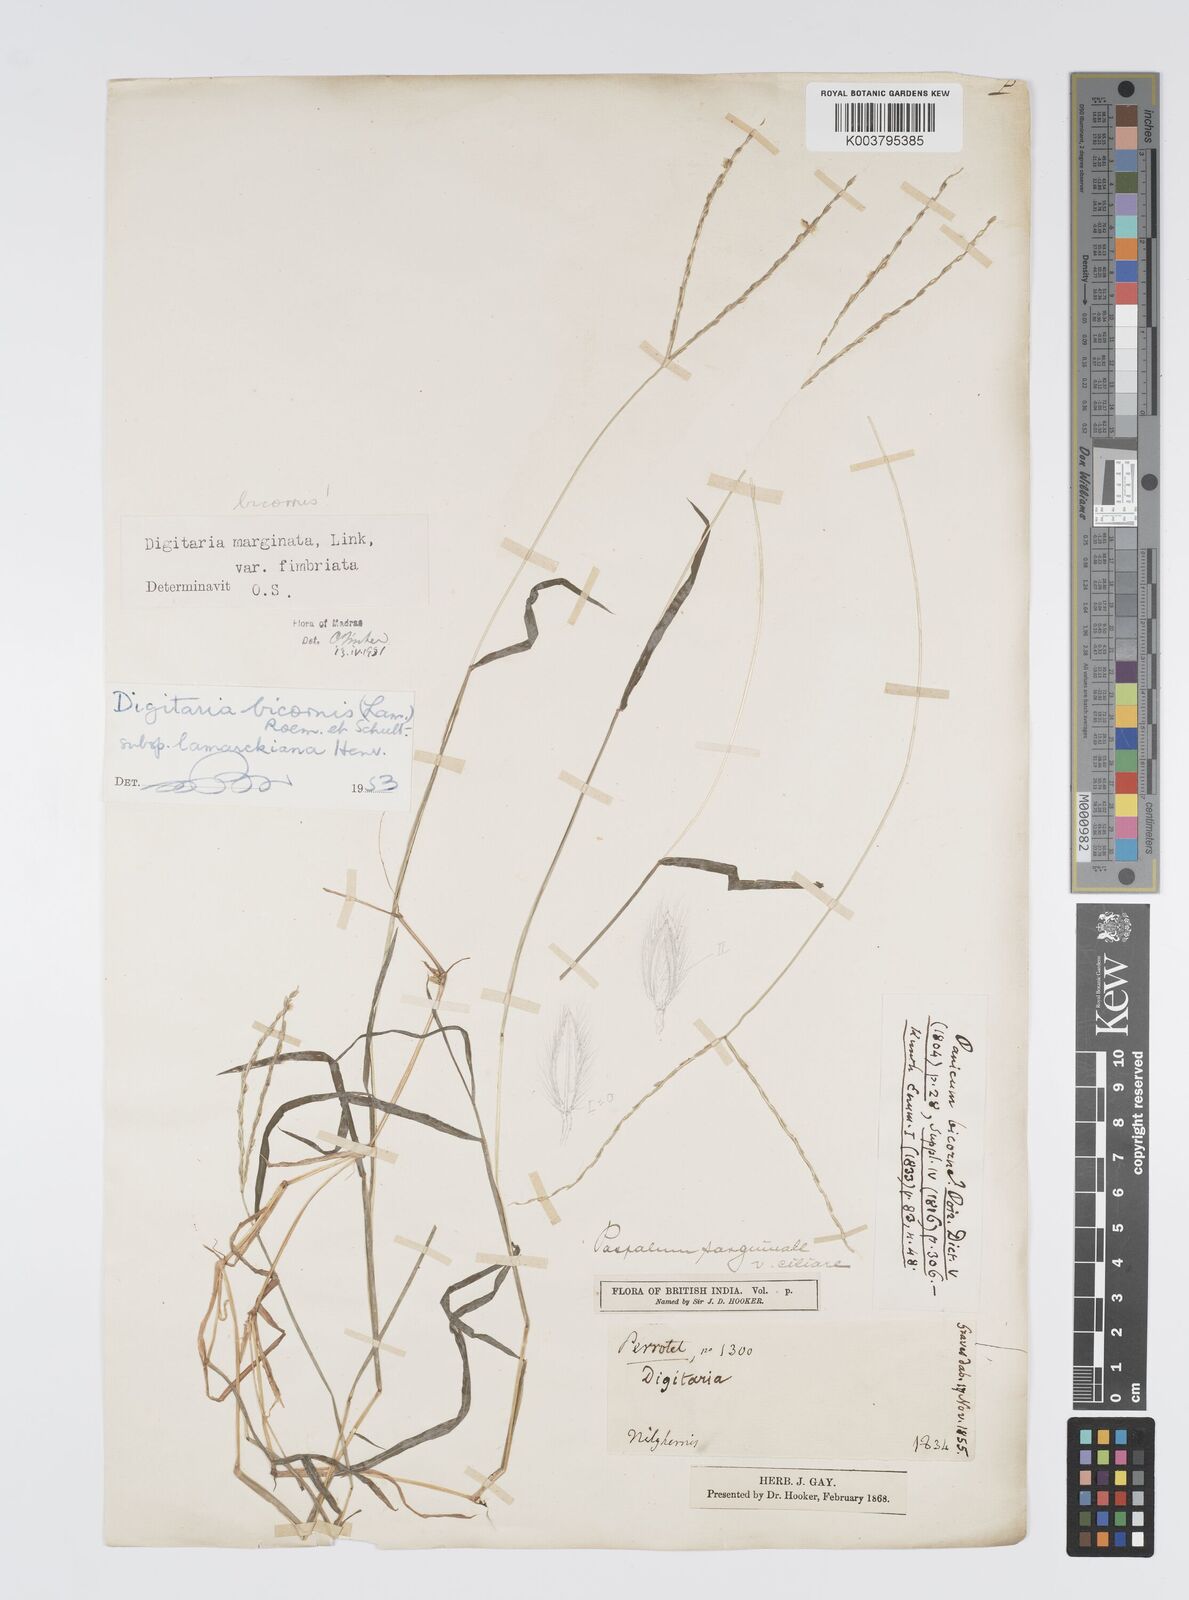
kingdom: Plantae
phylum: Tracheophyta
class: Liliopsida
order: Poales
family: Poaceae
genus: Digitaria
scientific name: Digitaria ciliaris
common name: Tropical finger-grass
